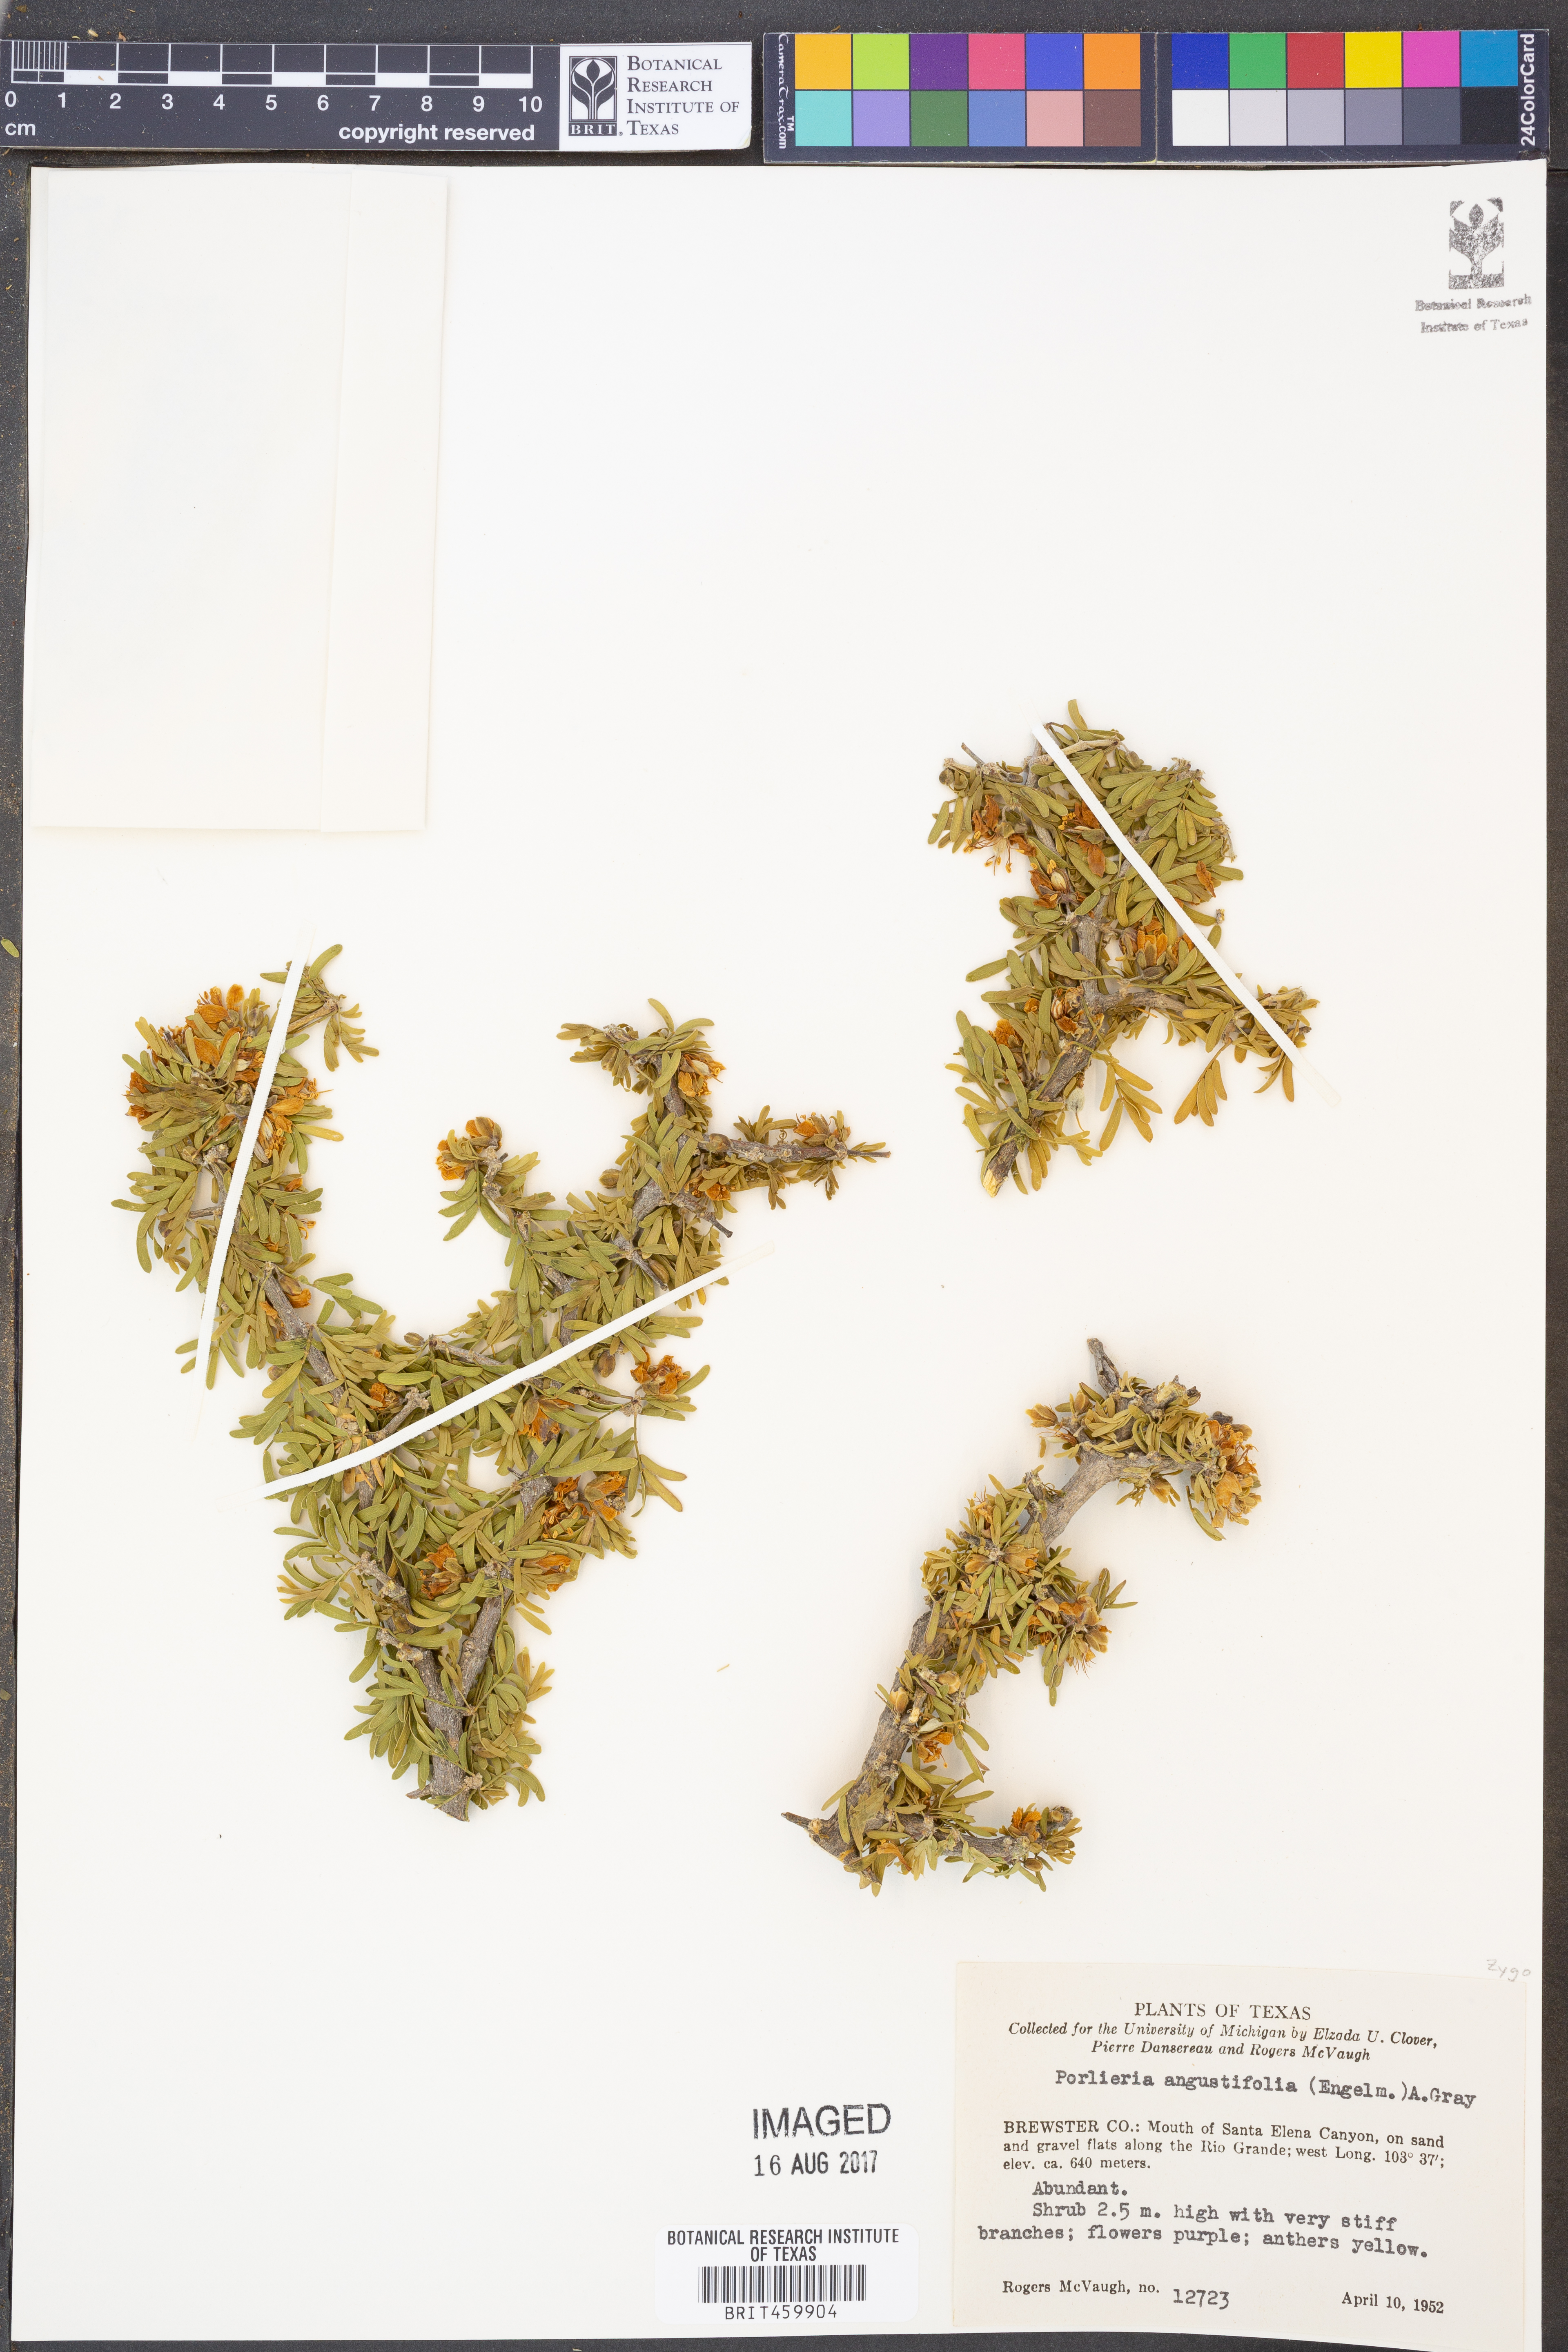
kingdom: Plantae
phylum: Tracheophyta
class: Magnoliopsida
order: Zygophyllales
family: Zygophyllaceae
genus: Porlieria
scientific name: Porlieria angustifolia
